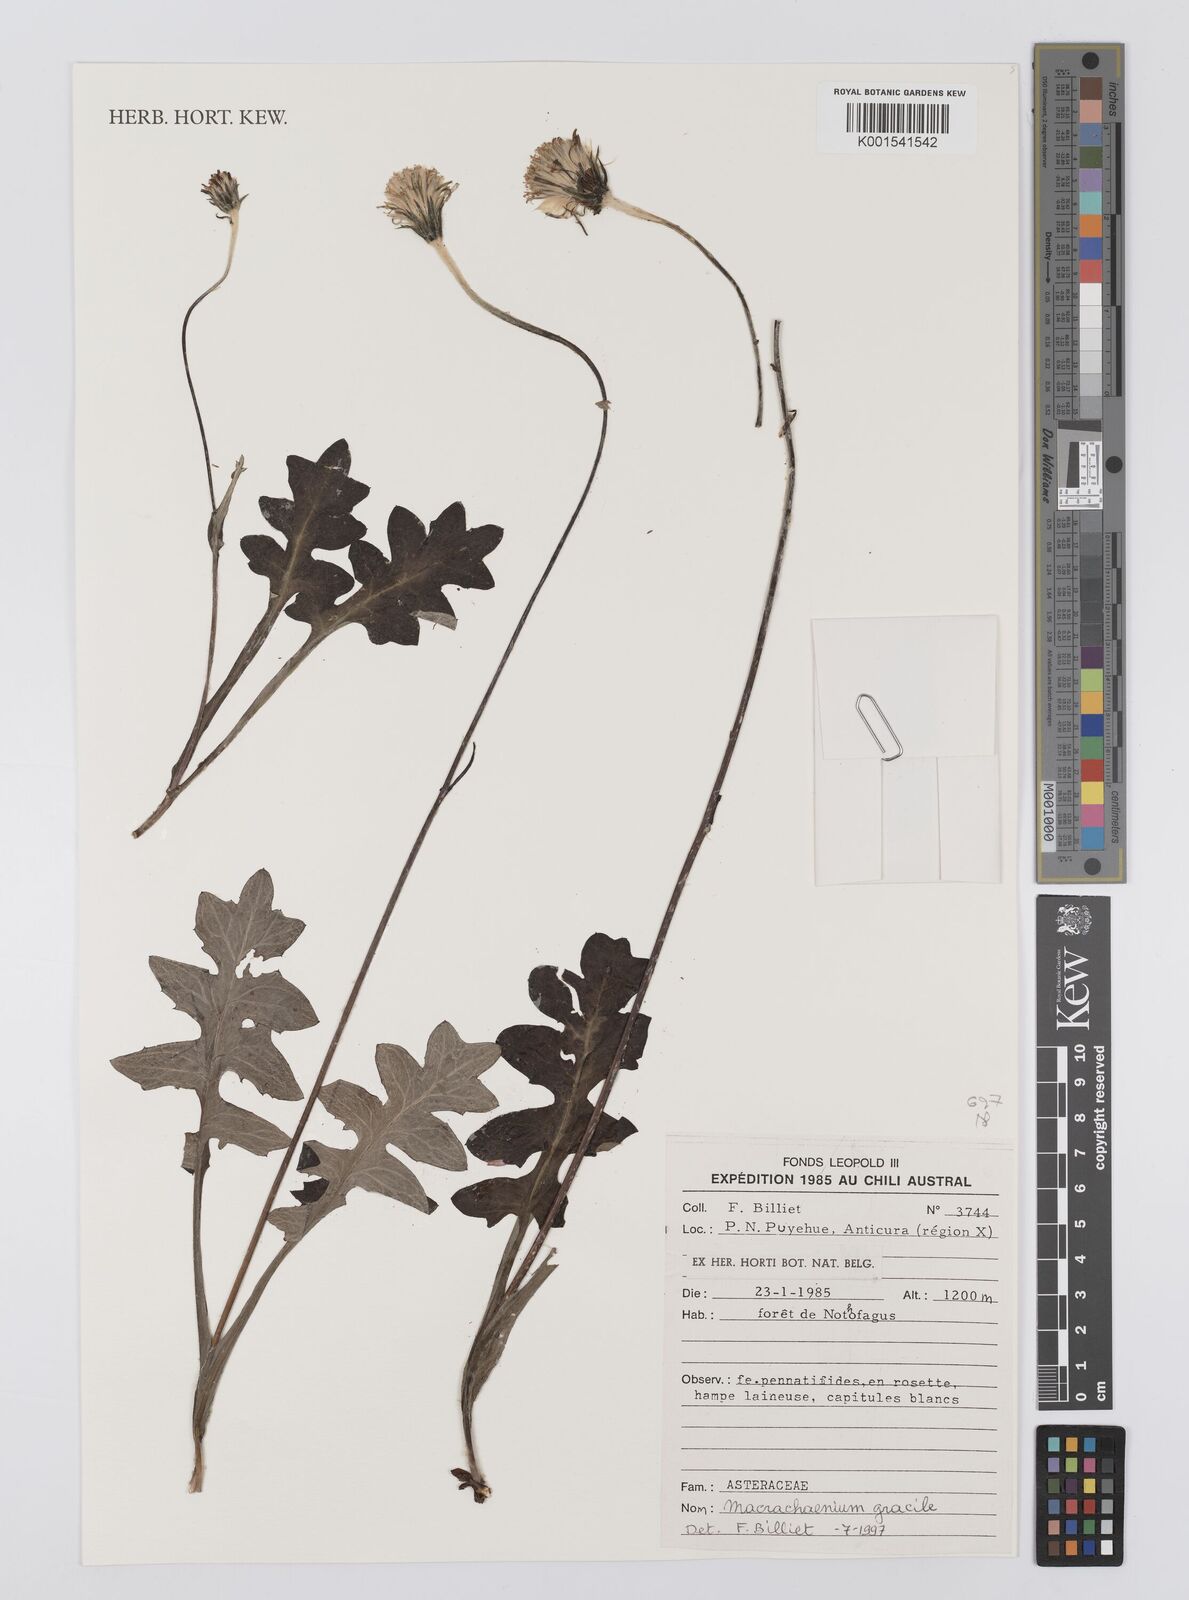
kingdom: Plantae
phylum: Tracheophyta
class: Magnoliopsida
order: Asterales
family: Asteraceae
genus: Macrachaenium
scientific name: Macrachaenium gracile
